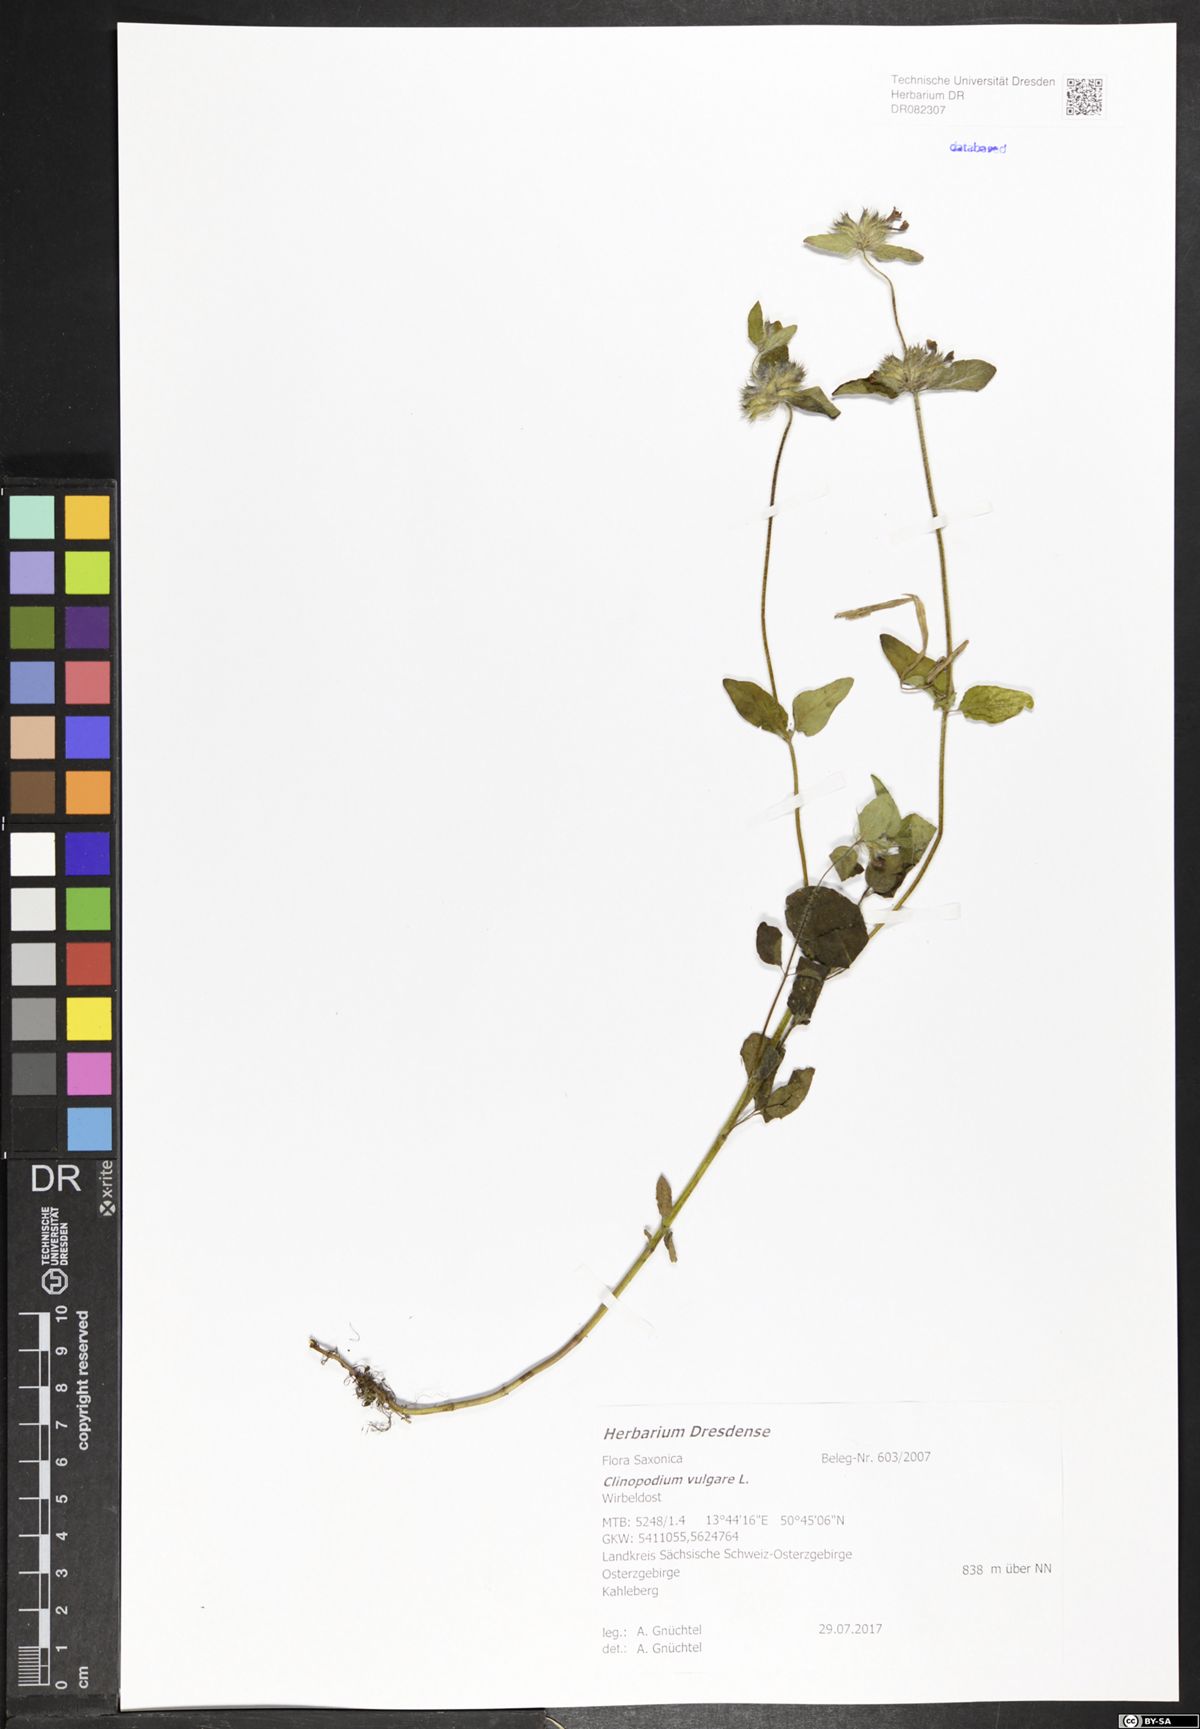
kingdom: Plantae
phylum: Tracheophyta
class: Magnoliopsida
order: Lamiales
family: Lamiaceae
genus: Clinopodium
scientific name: Clinopodium vulgare
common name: Wild basil
